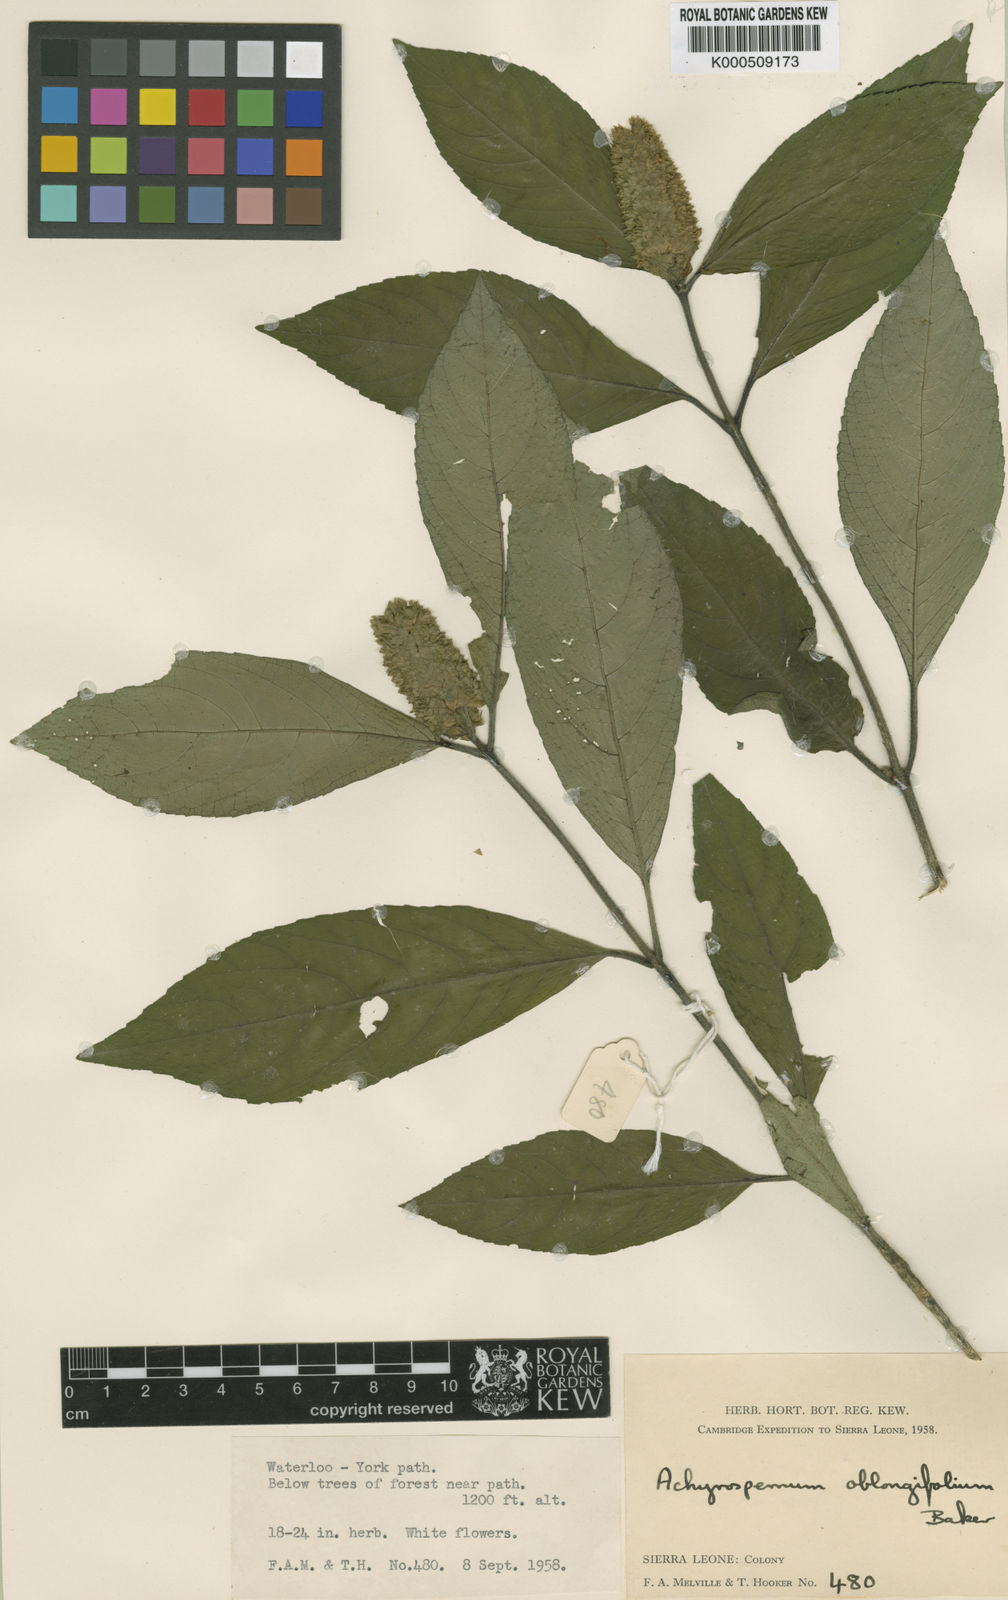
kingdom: Plantae
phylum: Tracheophyta
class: Magnoliopsida
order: Lamiales
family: Lamiaceae
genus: Achyrospermum
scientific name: Achyrospermum oblongifolium
